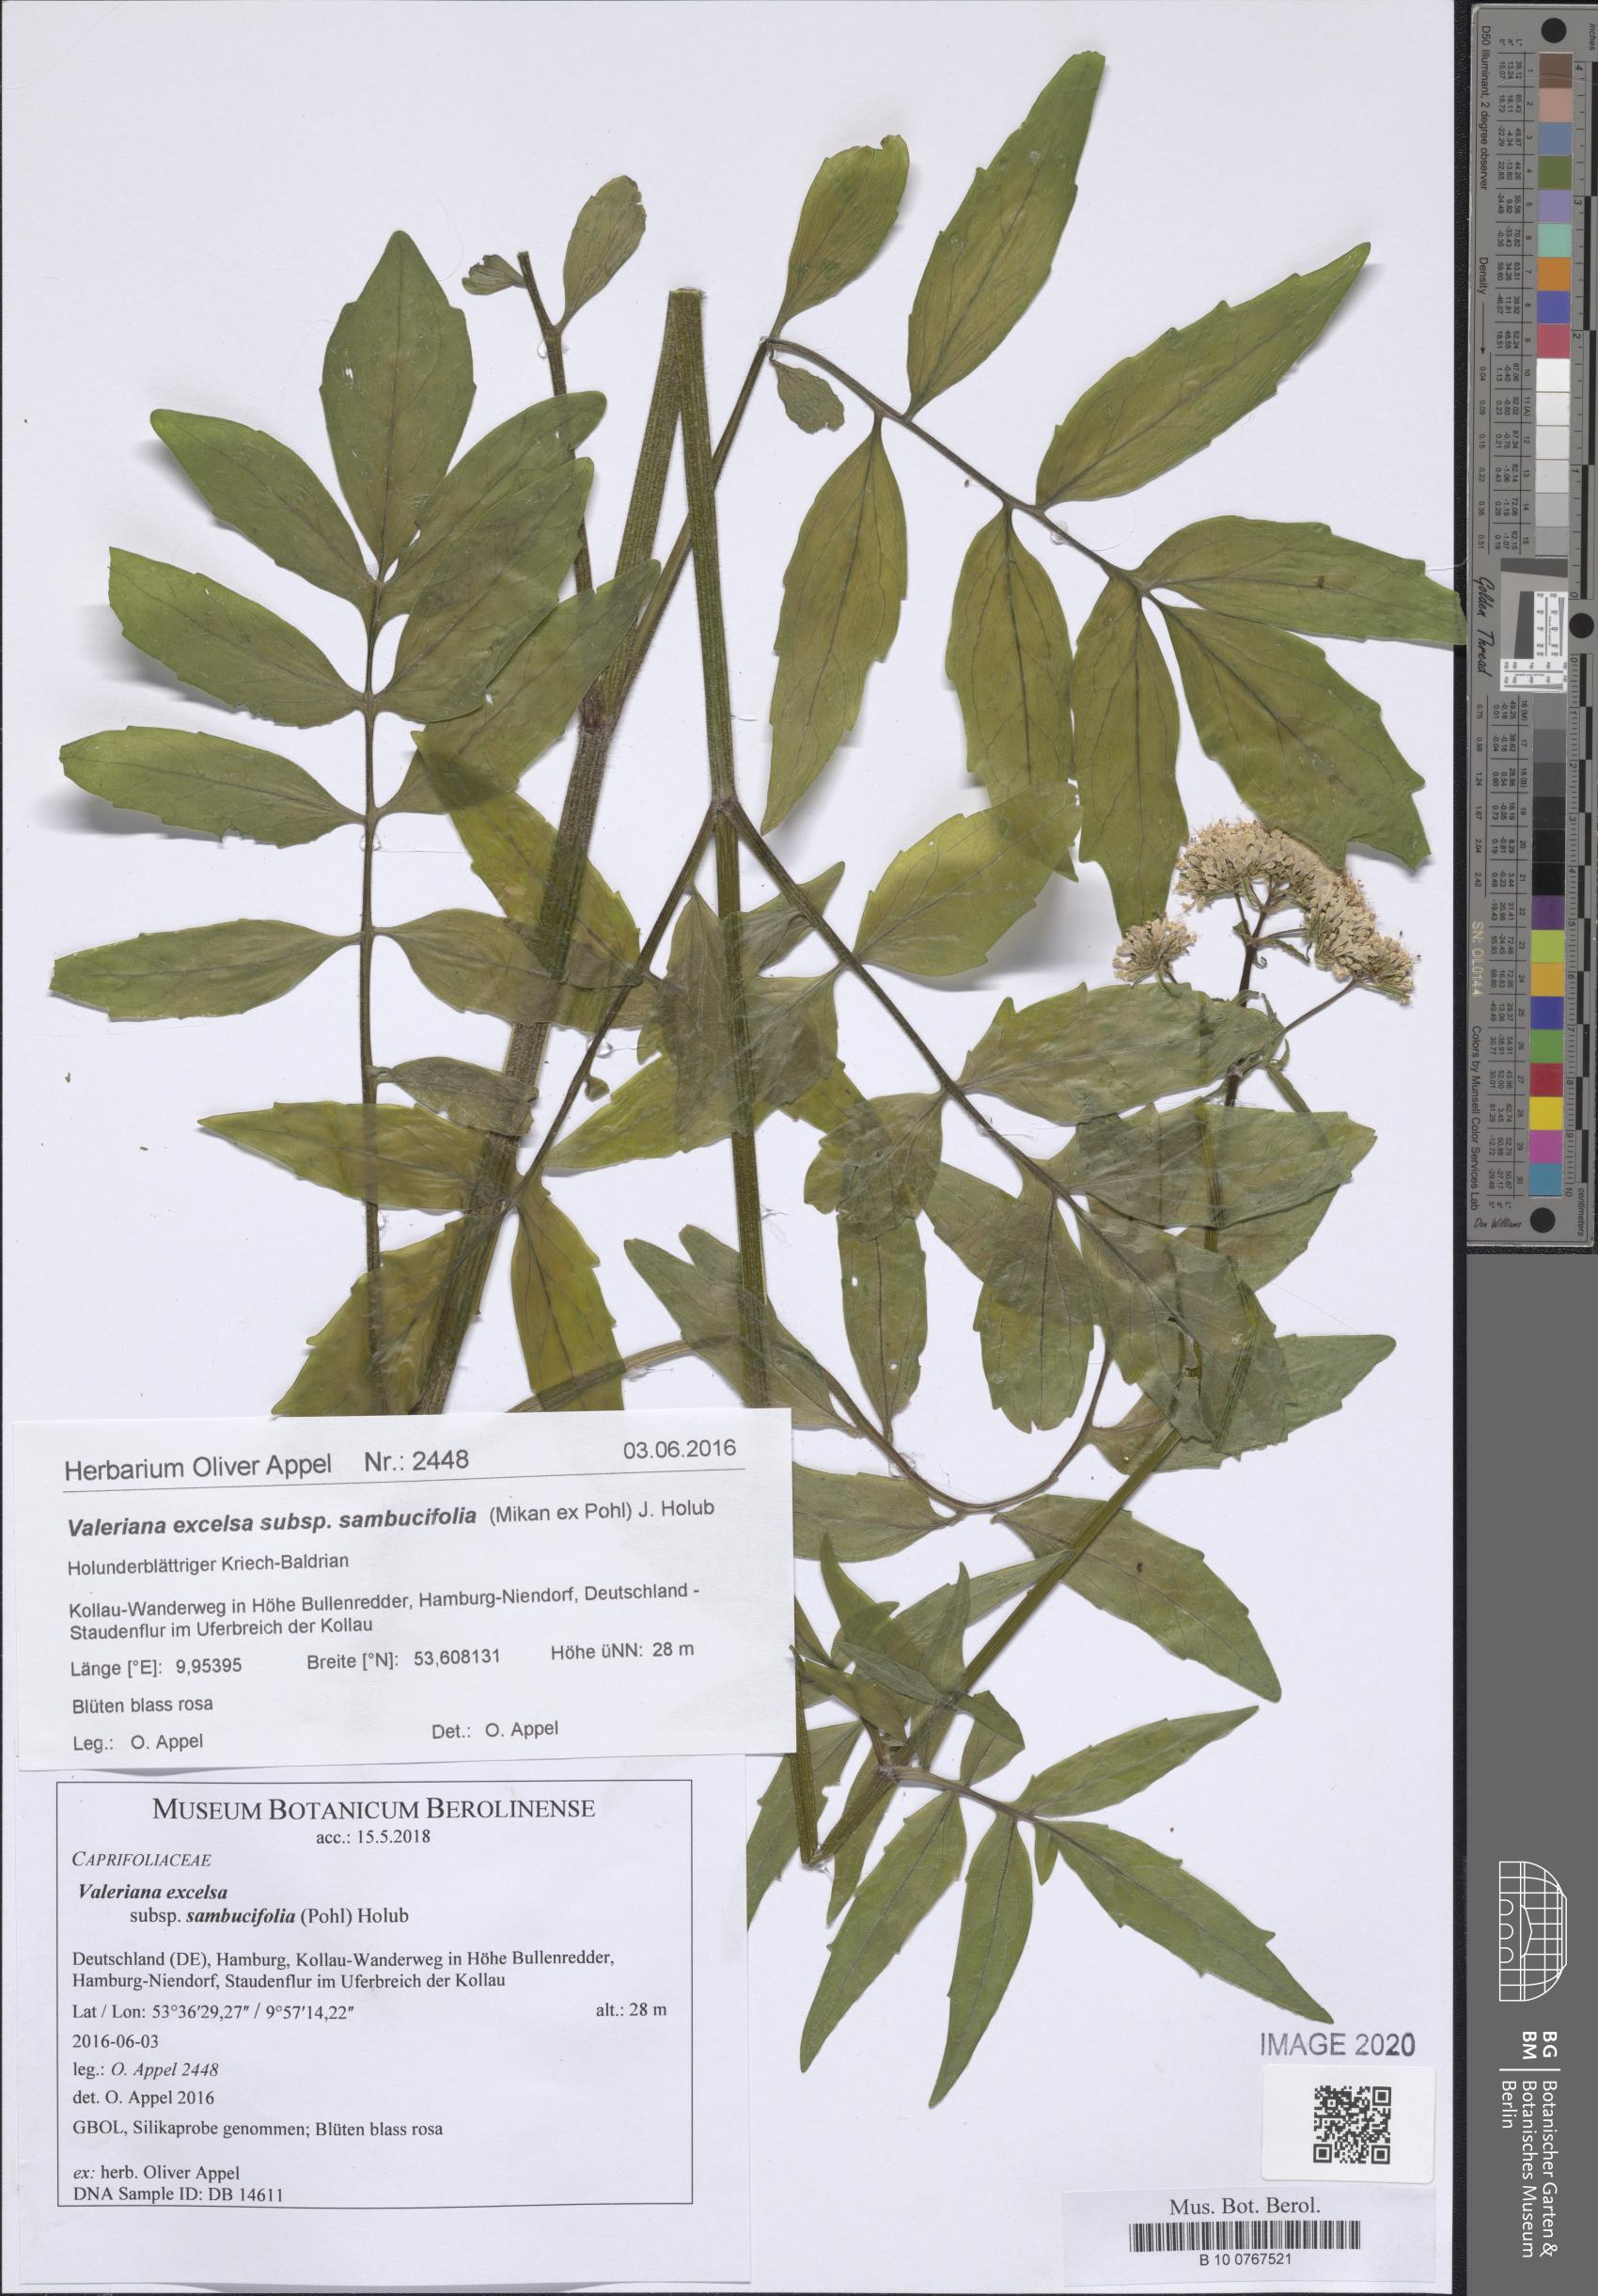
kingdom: Plantae
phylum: Tracheophyta
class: Magnoliopsida
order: Dipsacales
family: Caprifoliaceae
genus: Valeriana
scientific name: Valeriana excelsa
